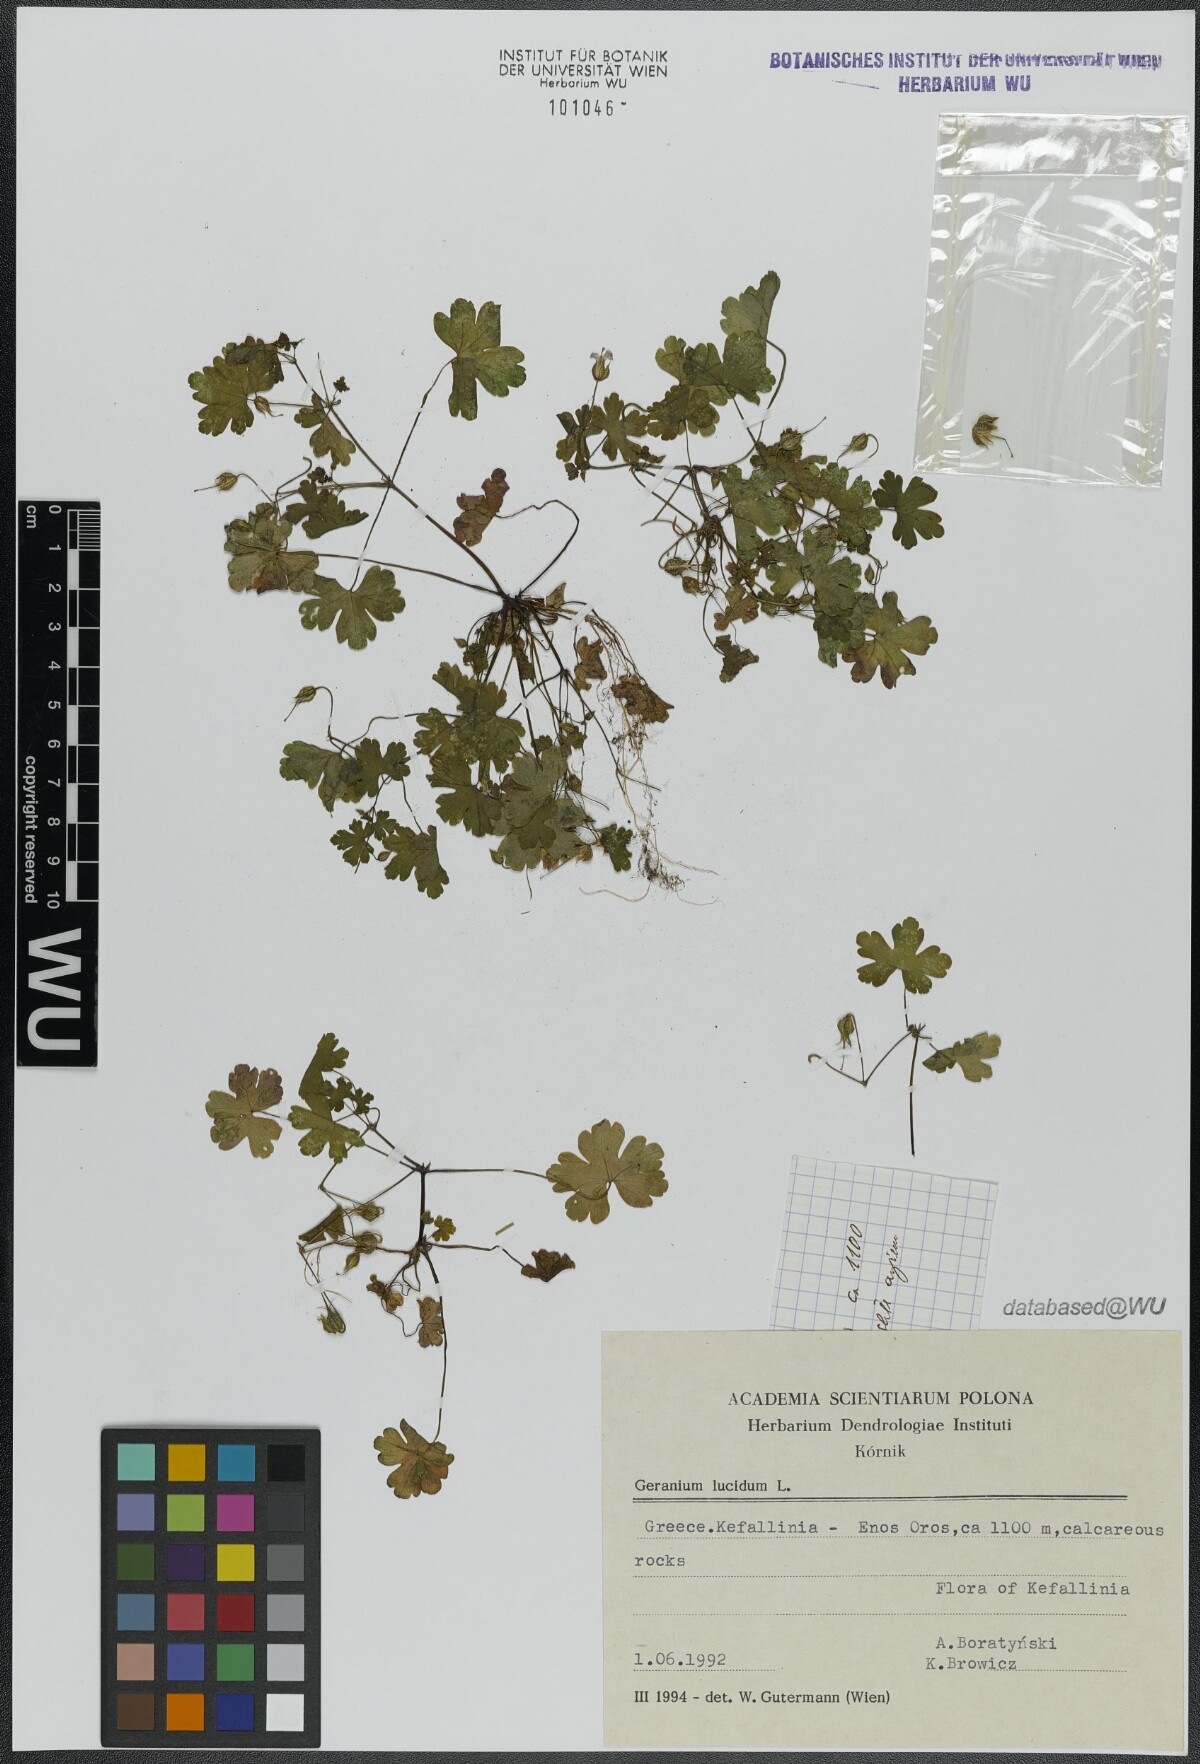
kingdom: Plantae
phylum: Tracheophyta
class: Magnoliopsida
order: Geraniales
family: Geraniaceae
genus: Geranium
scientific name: Geranium lucidum
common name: Shining crane's-bill
